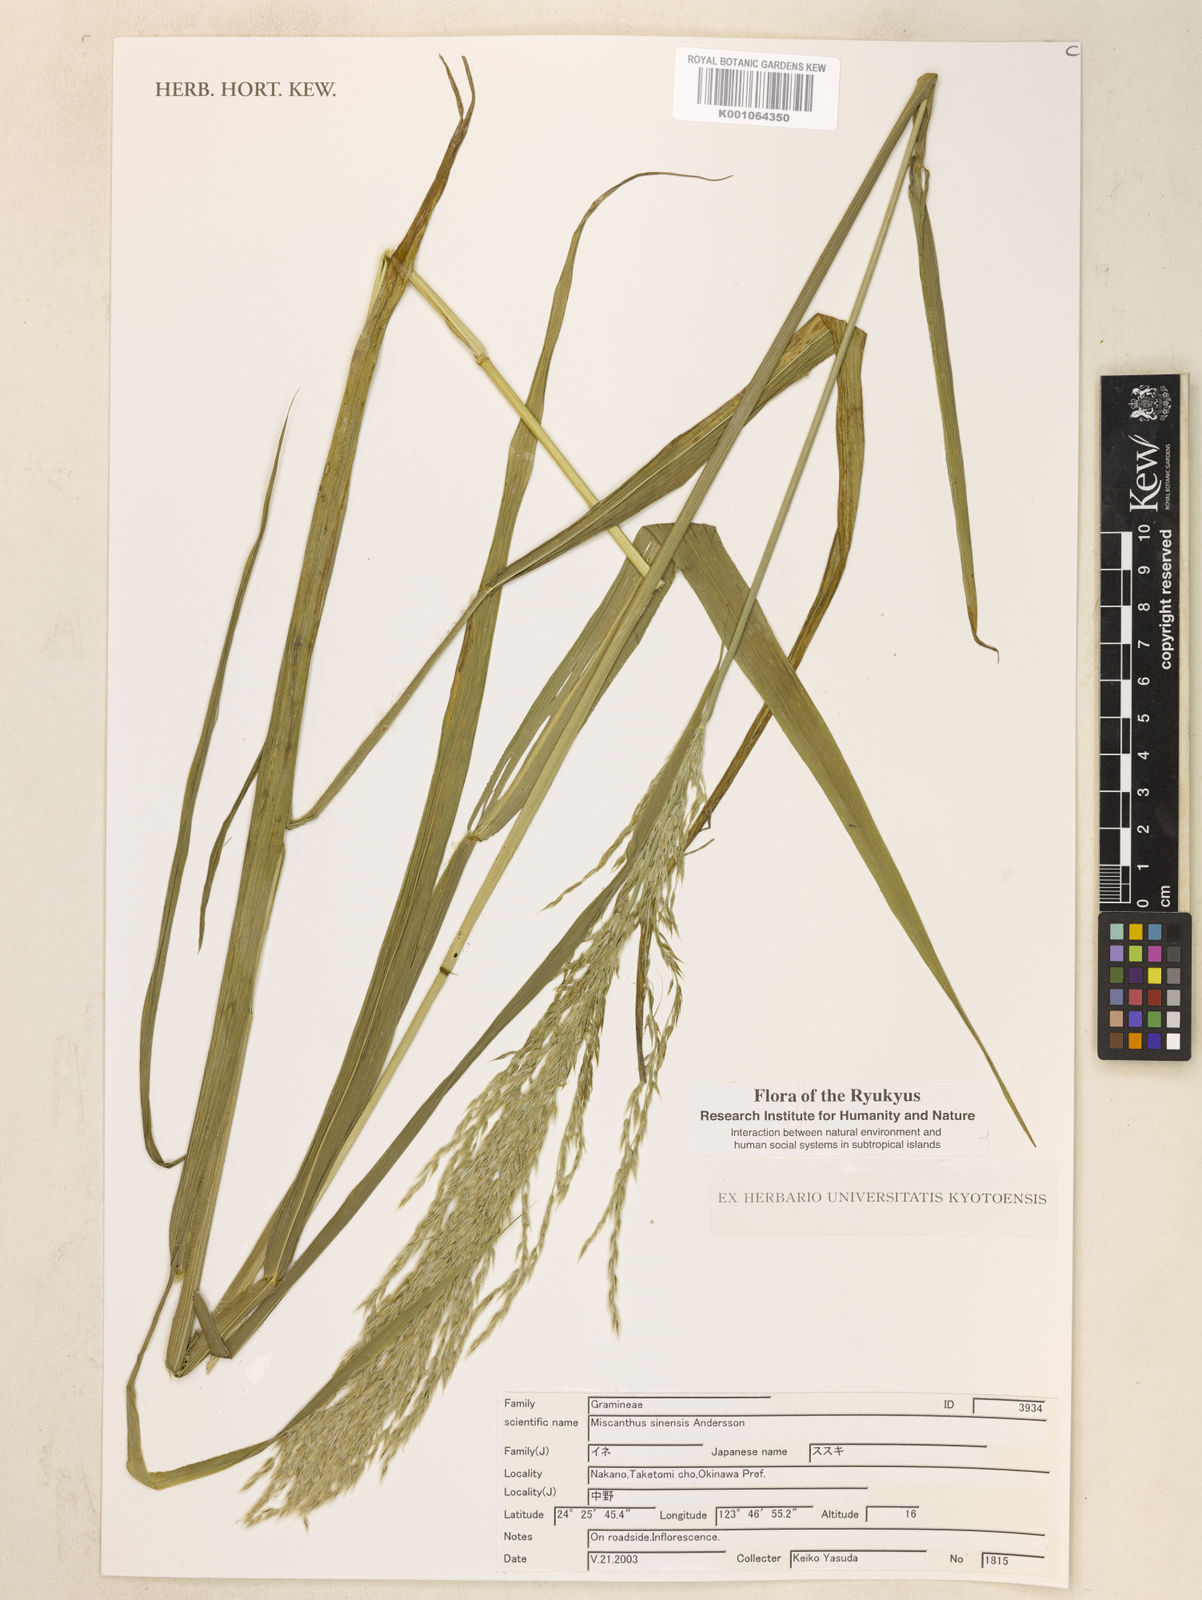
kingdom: Plantae
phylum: Tracheophyta
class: Liliopsida
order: Poales
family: Poaceae
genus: Miscanthus
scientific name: Miscanthus sinensis
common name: Chinese silvergrass
